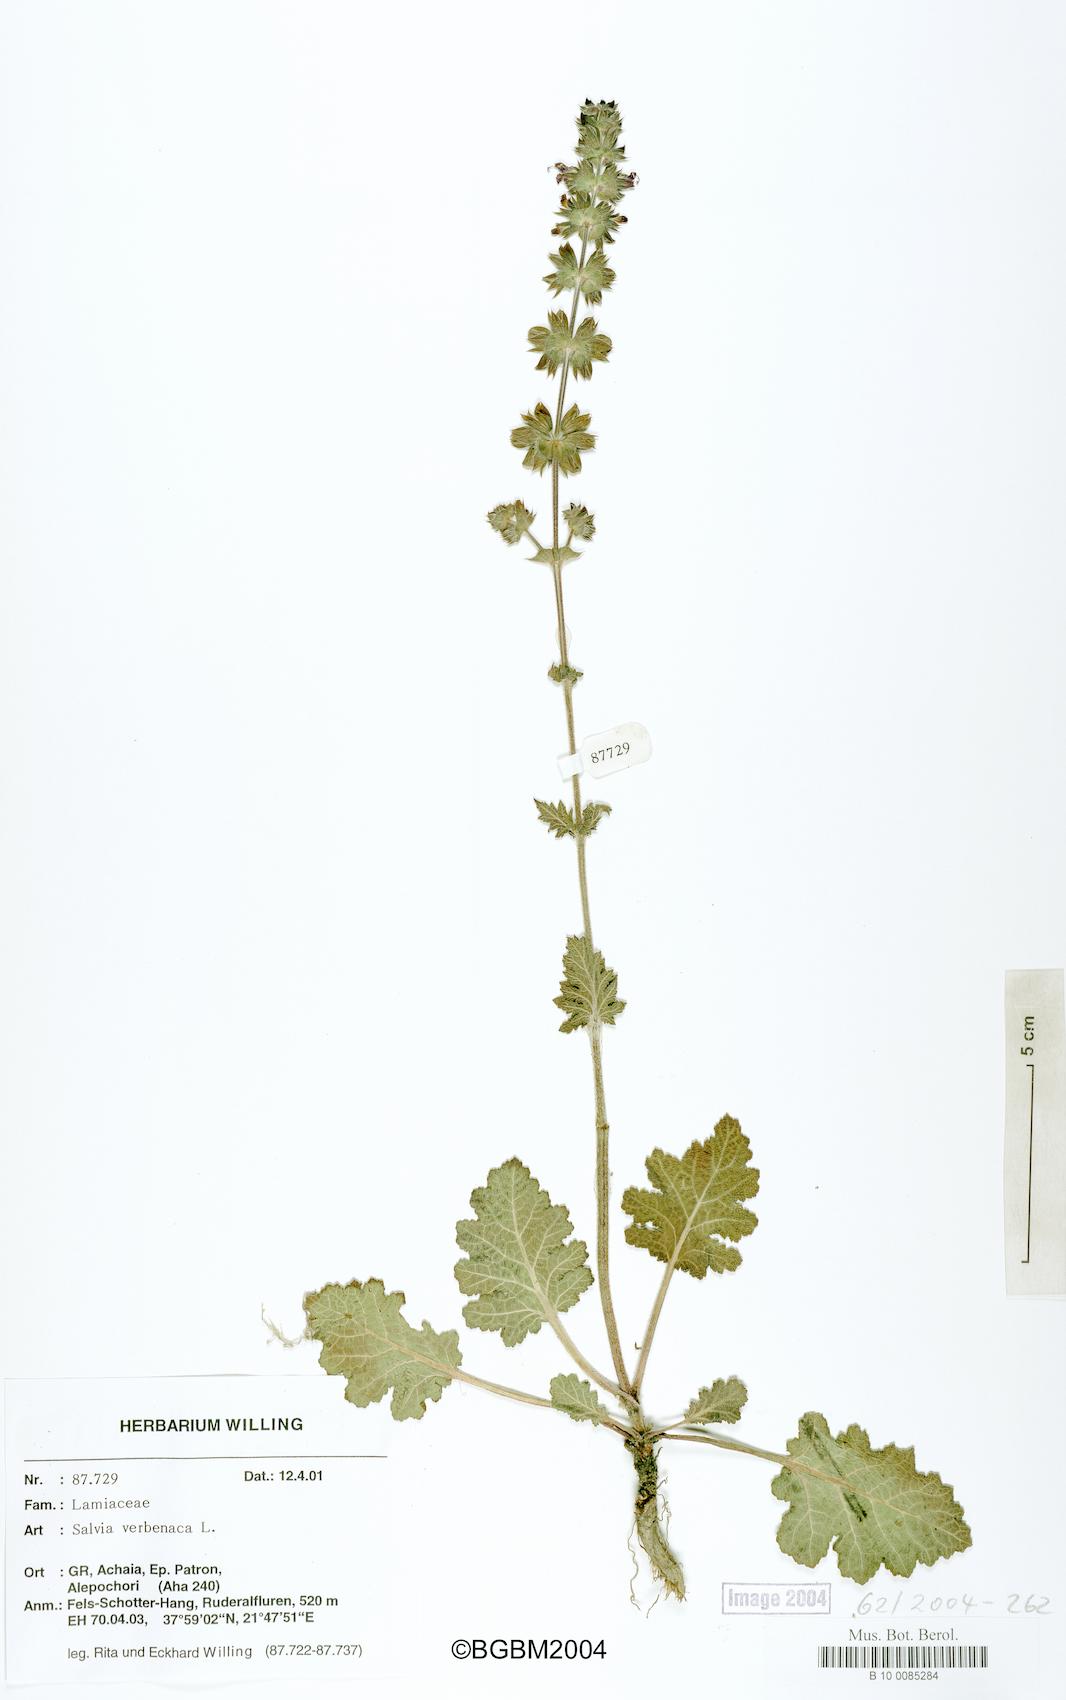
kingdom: Plantae
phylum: Tracheophyta
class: Magnoliopsida
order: Lamiales
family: Lamiaceae
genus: Salvia
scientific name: Salvia verbenaca
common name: Wild clary
